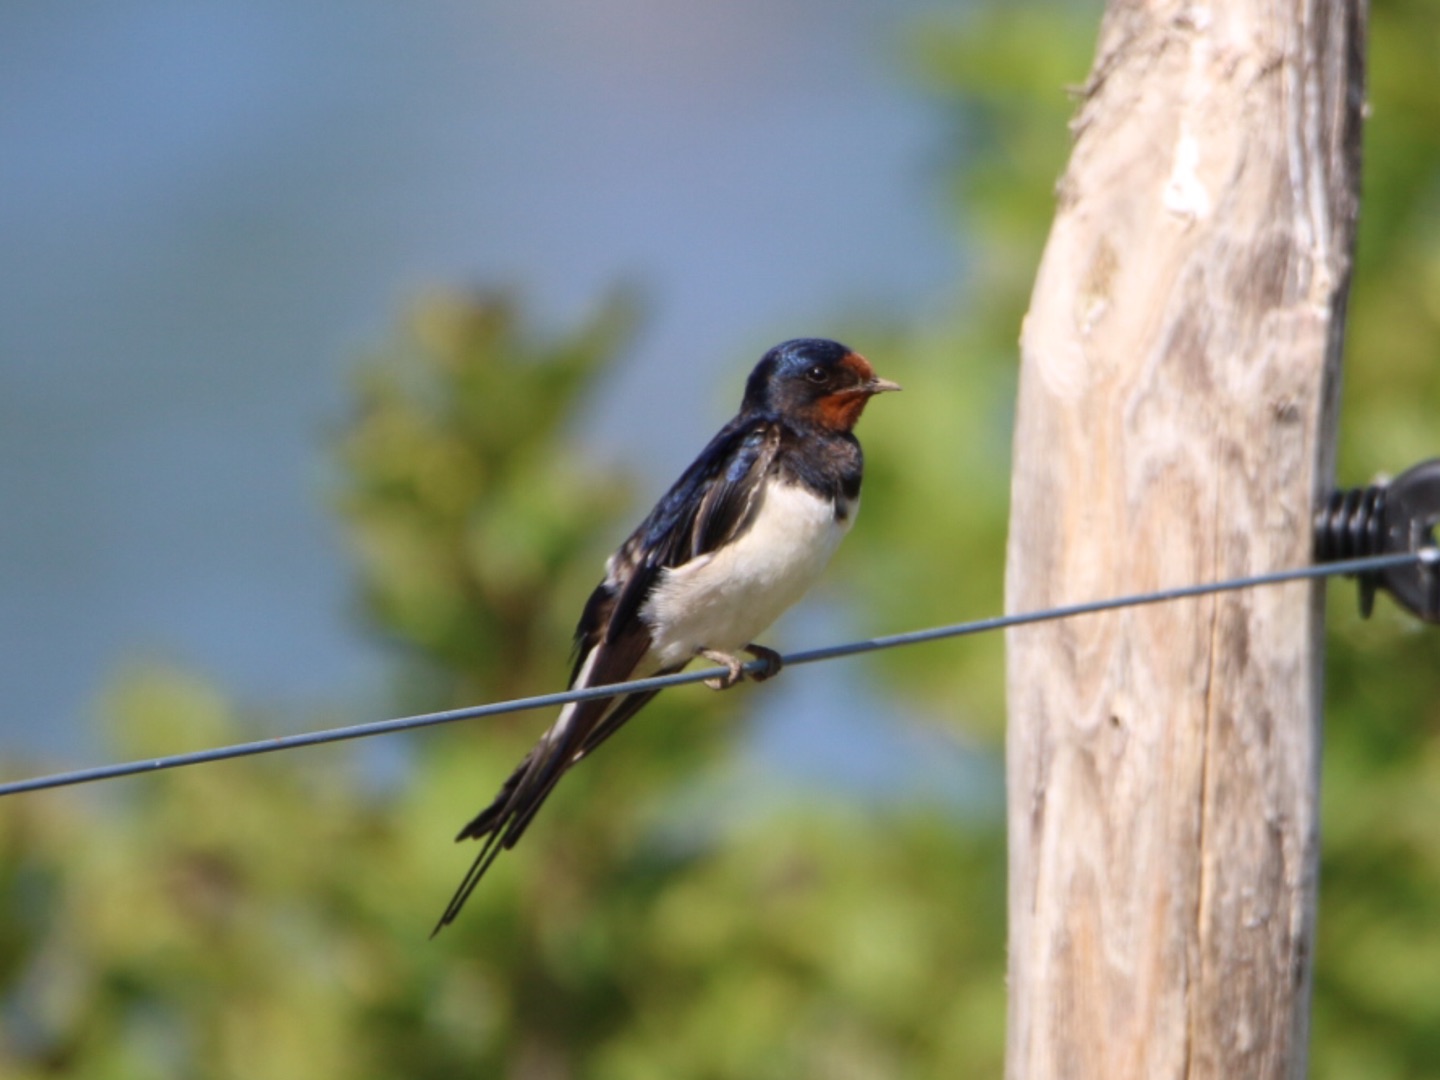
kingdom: Animalia
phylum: Chordata
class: Aves
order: Passeriformes
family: Hirundinidae
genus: Hirundo
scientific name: Hirundo rustica
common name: Landsvale
